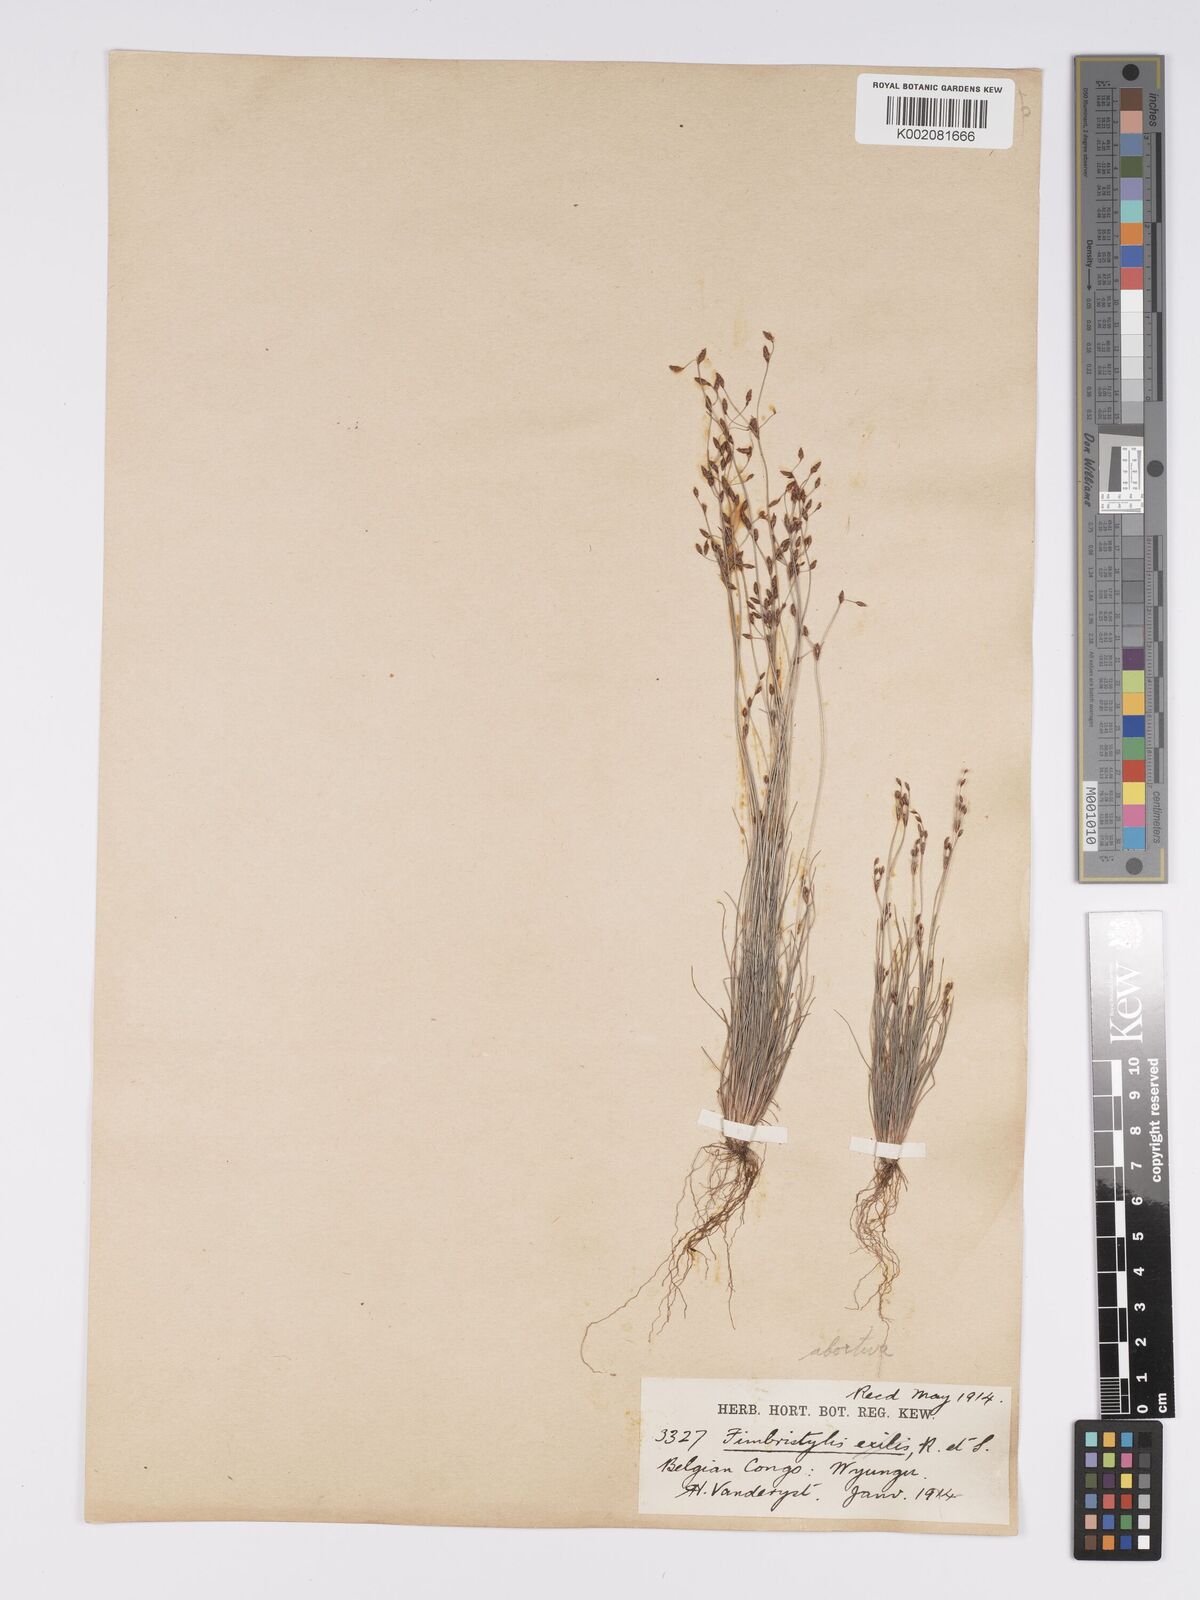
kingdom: Plantae
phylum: Tracheophyta
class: Liliopsida
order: Poales
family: Cyperaceae
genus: Bulbostylis
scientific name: Bulbostylis abortiva
